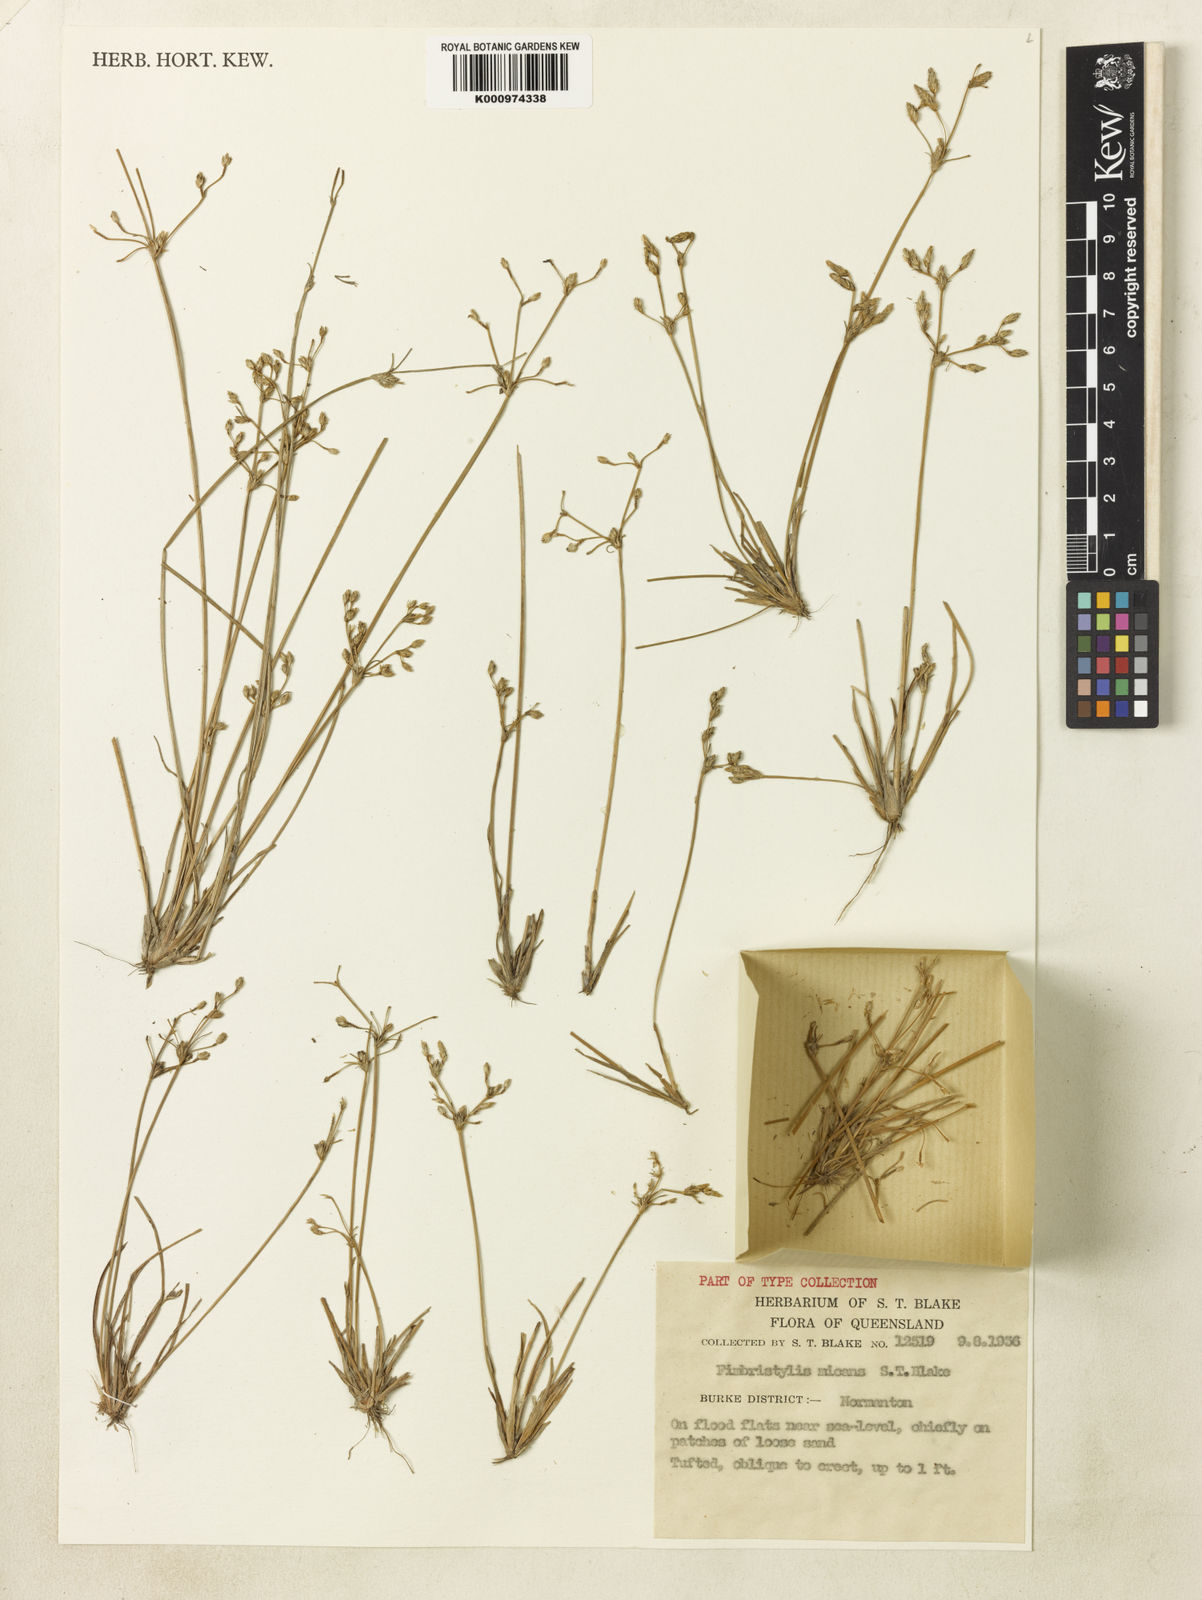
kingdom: Plantae
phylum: Tracheophyta
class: Liliopsida
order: Poales
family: Cyperaceae
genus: Fimbristylis
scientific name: Fimbristylis micans
